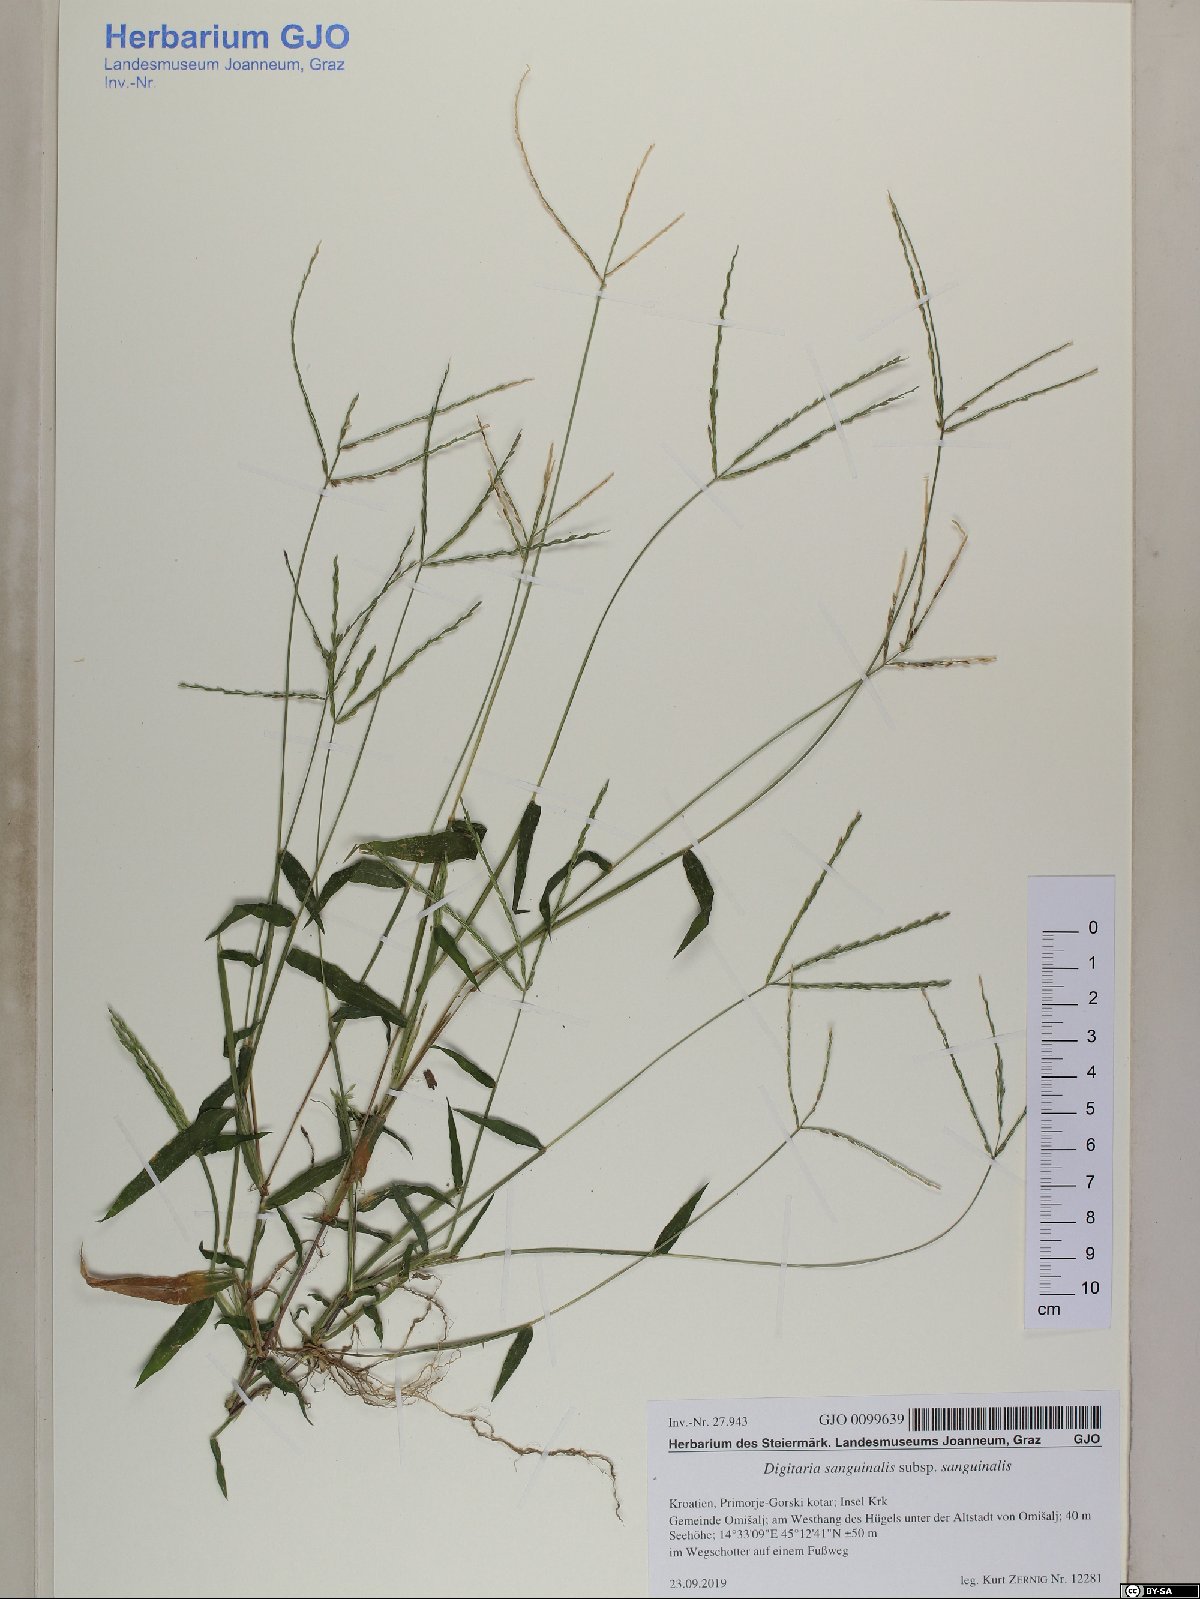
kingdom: Plantae
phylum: Tracheophyta
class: Liliopsida
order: Poales
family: Poaceae
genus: Digitaria
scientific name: Digitaria sanguinalis
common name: Hairy crabgrass
